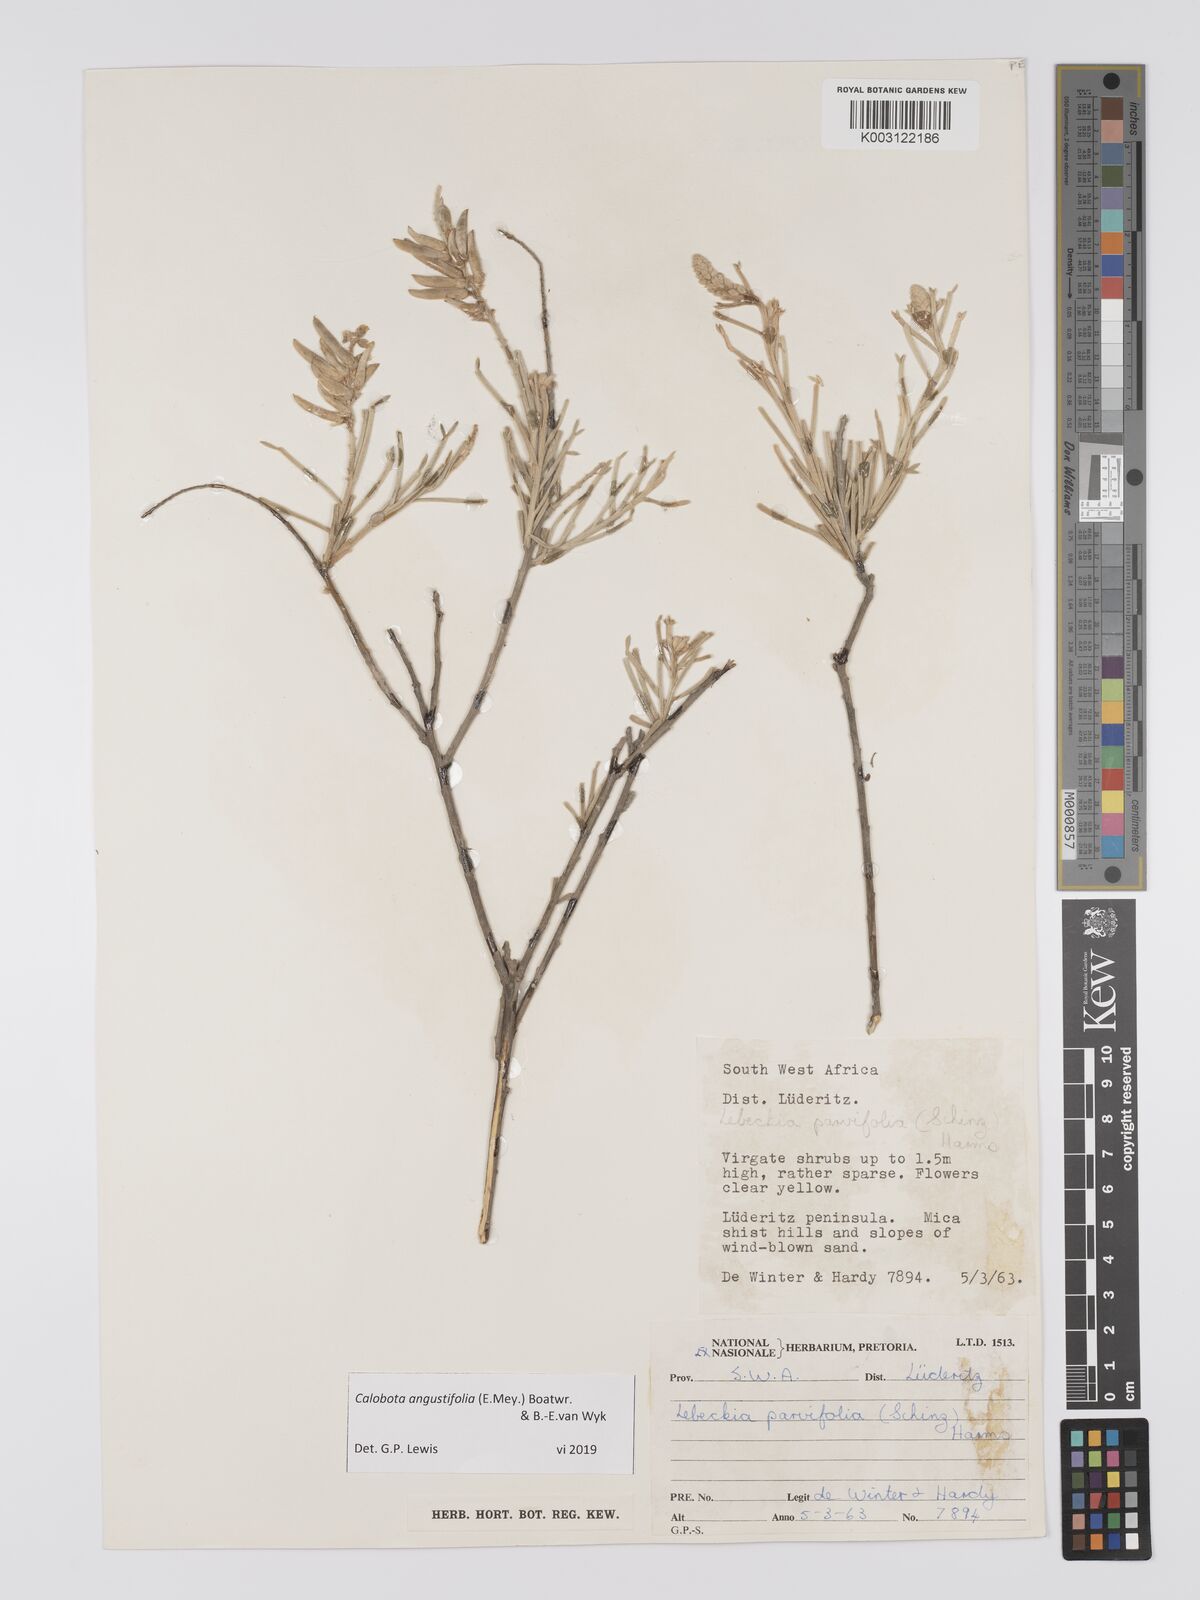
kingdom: Plantae
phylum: Tracheophyta
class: Magnoliopsida
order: Fabales
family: Fabaceae
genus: Calobota
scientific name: Calobota angustifolia
